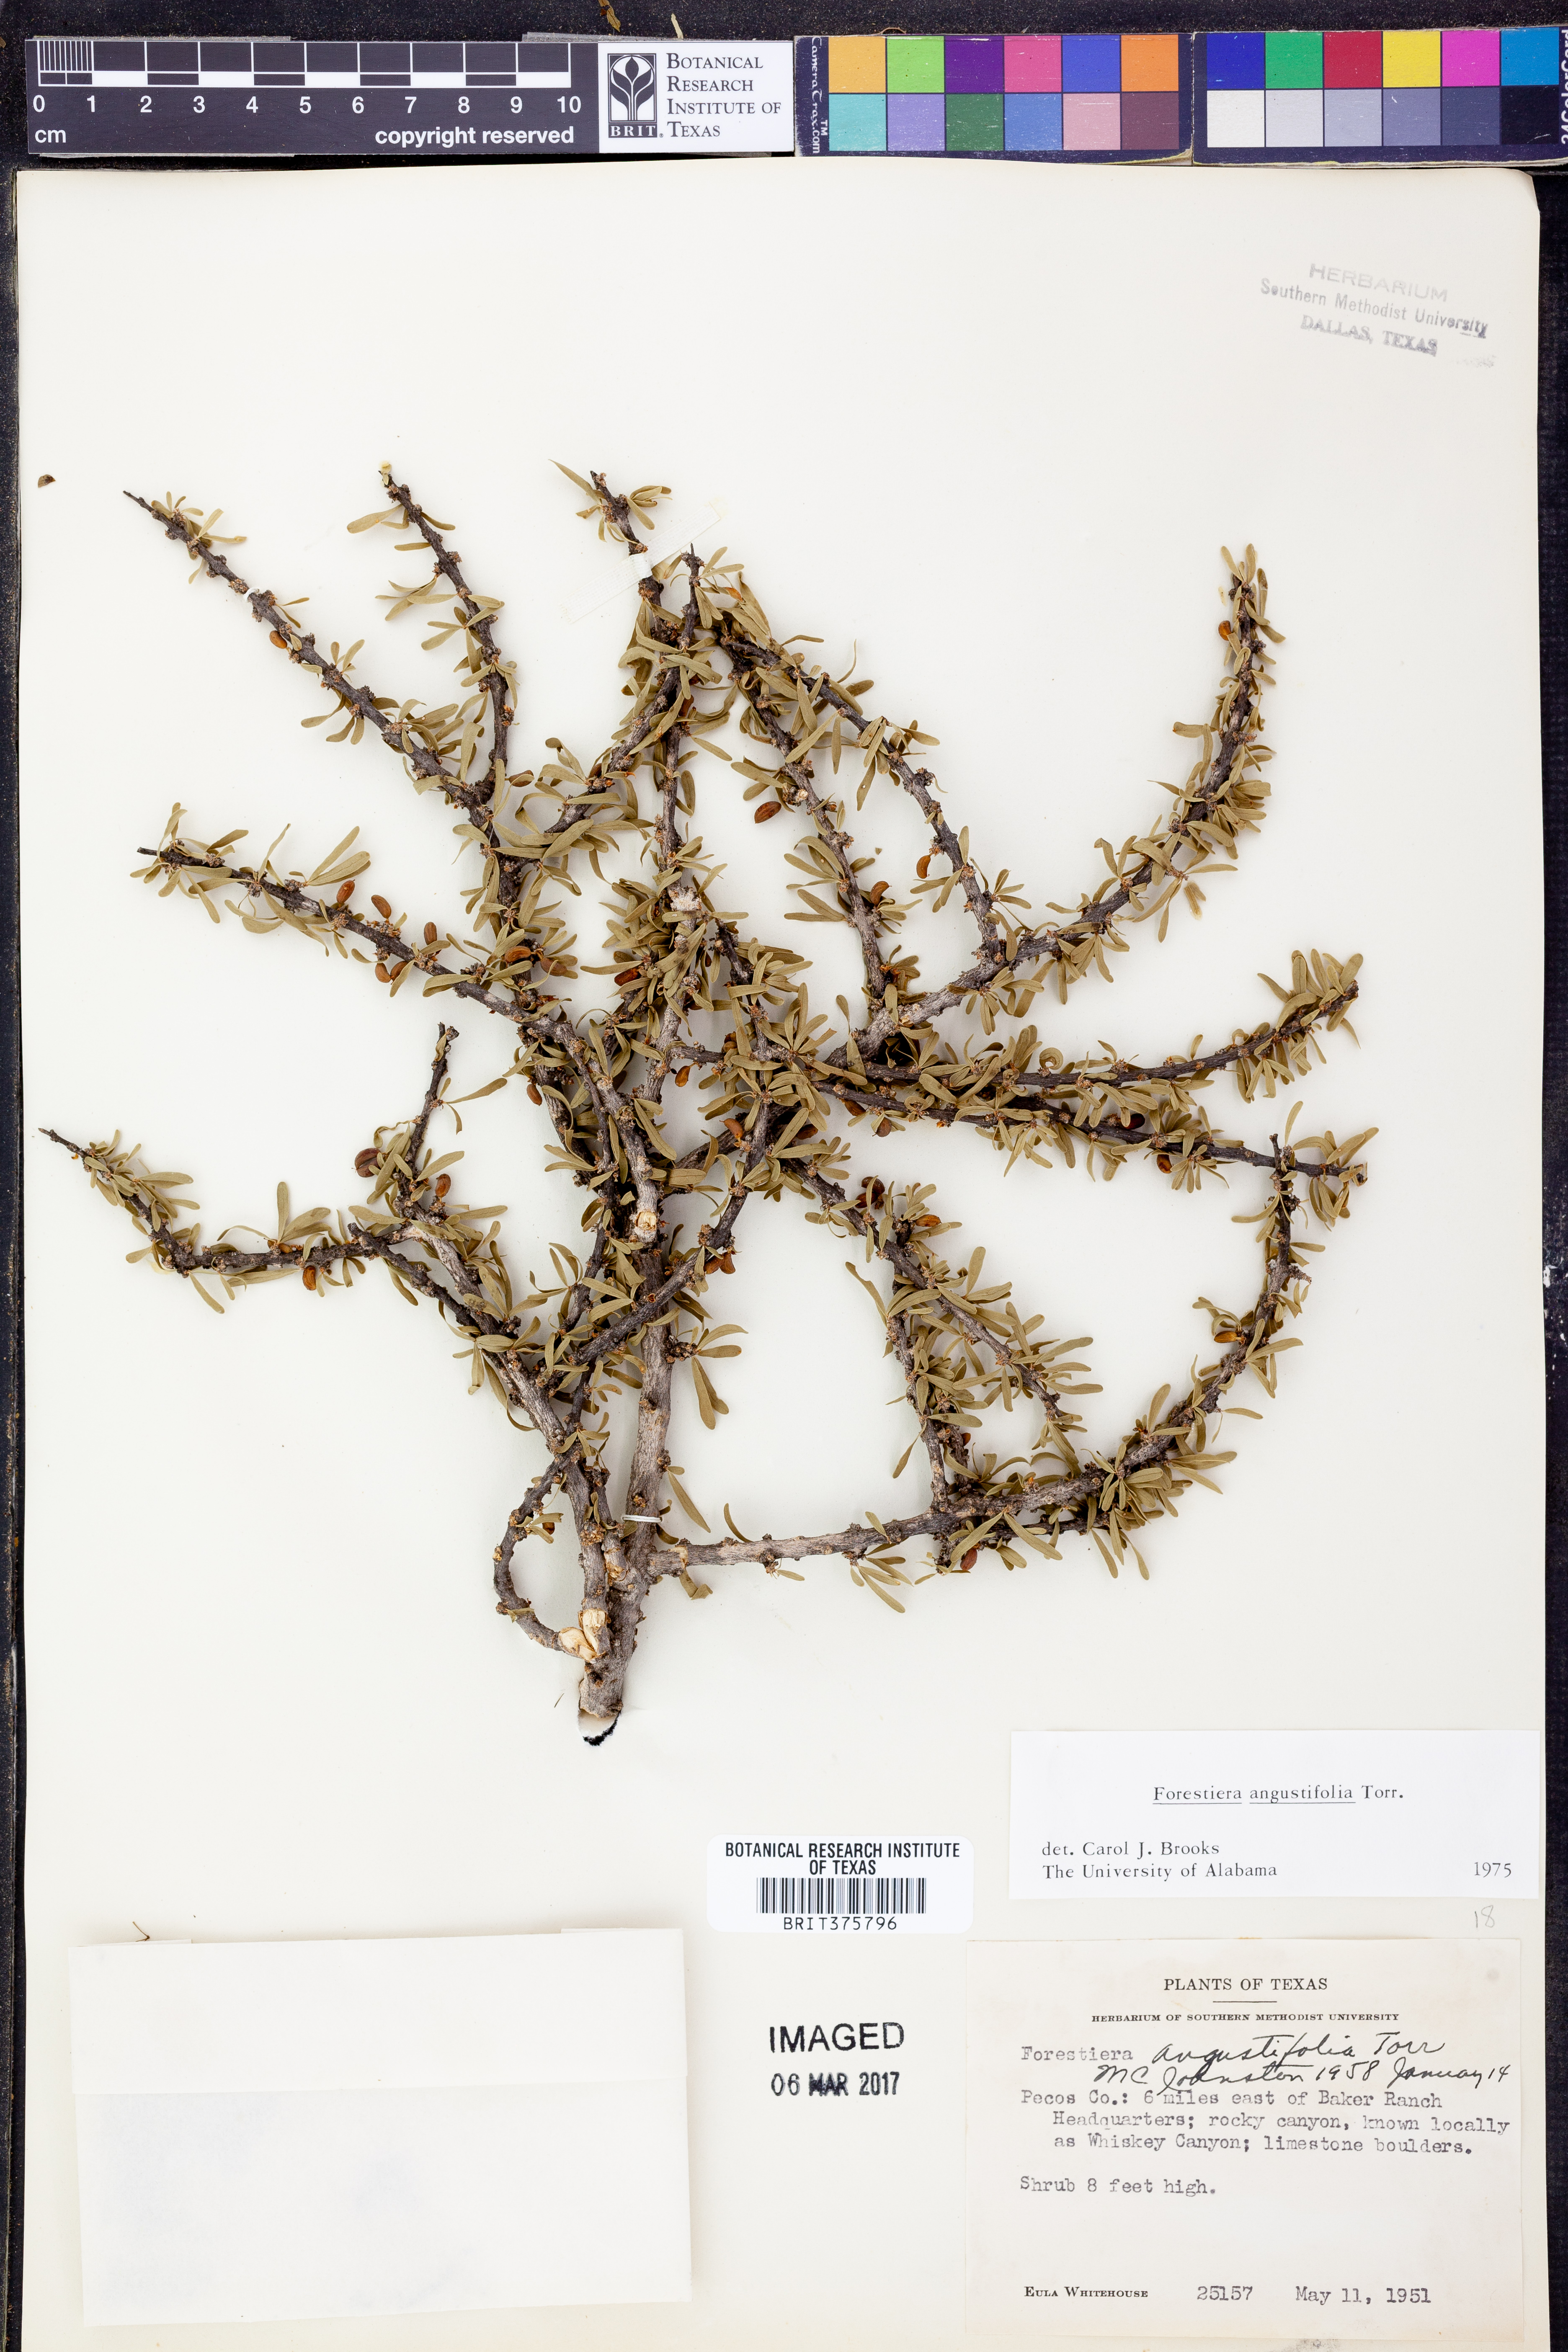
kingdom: Plantae
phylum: Tracheophyta
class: Magnoliopsida
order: Lamiales
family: Oleaceae
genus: Forestiera
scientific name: Forestiera angustifolia
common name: Elbowbush
